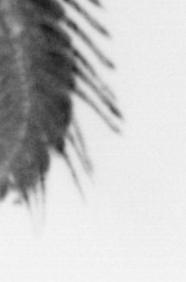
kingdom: Animalia
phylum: Annelida
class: Polychaeta
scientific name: Polychaeta
